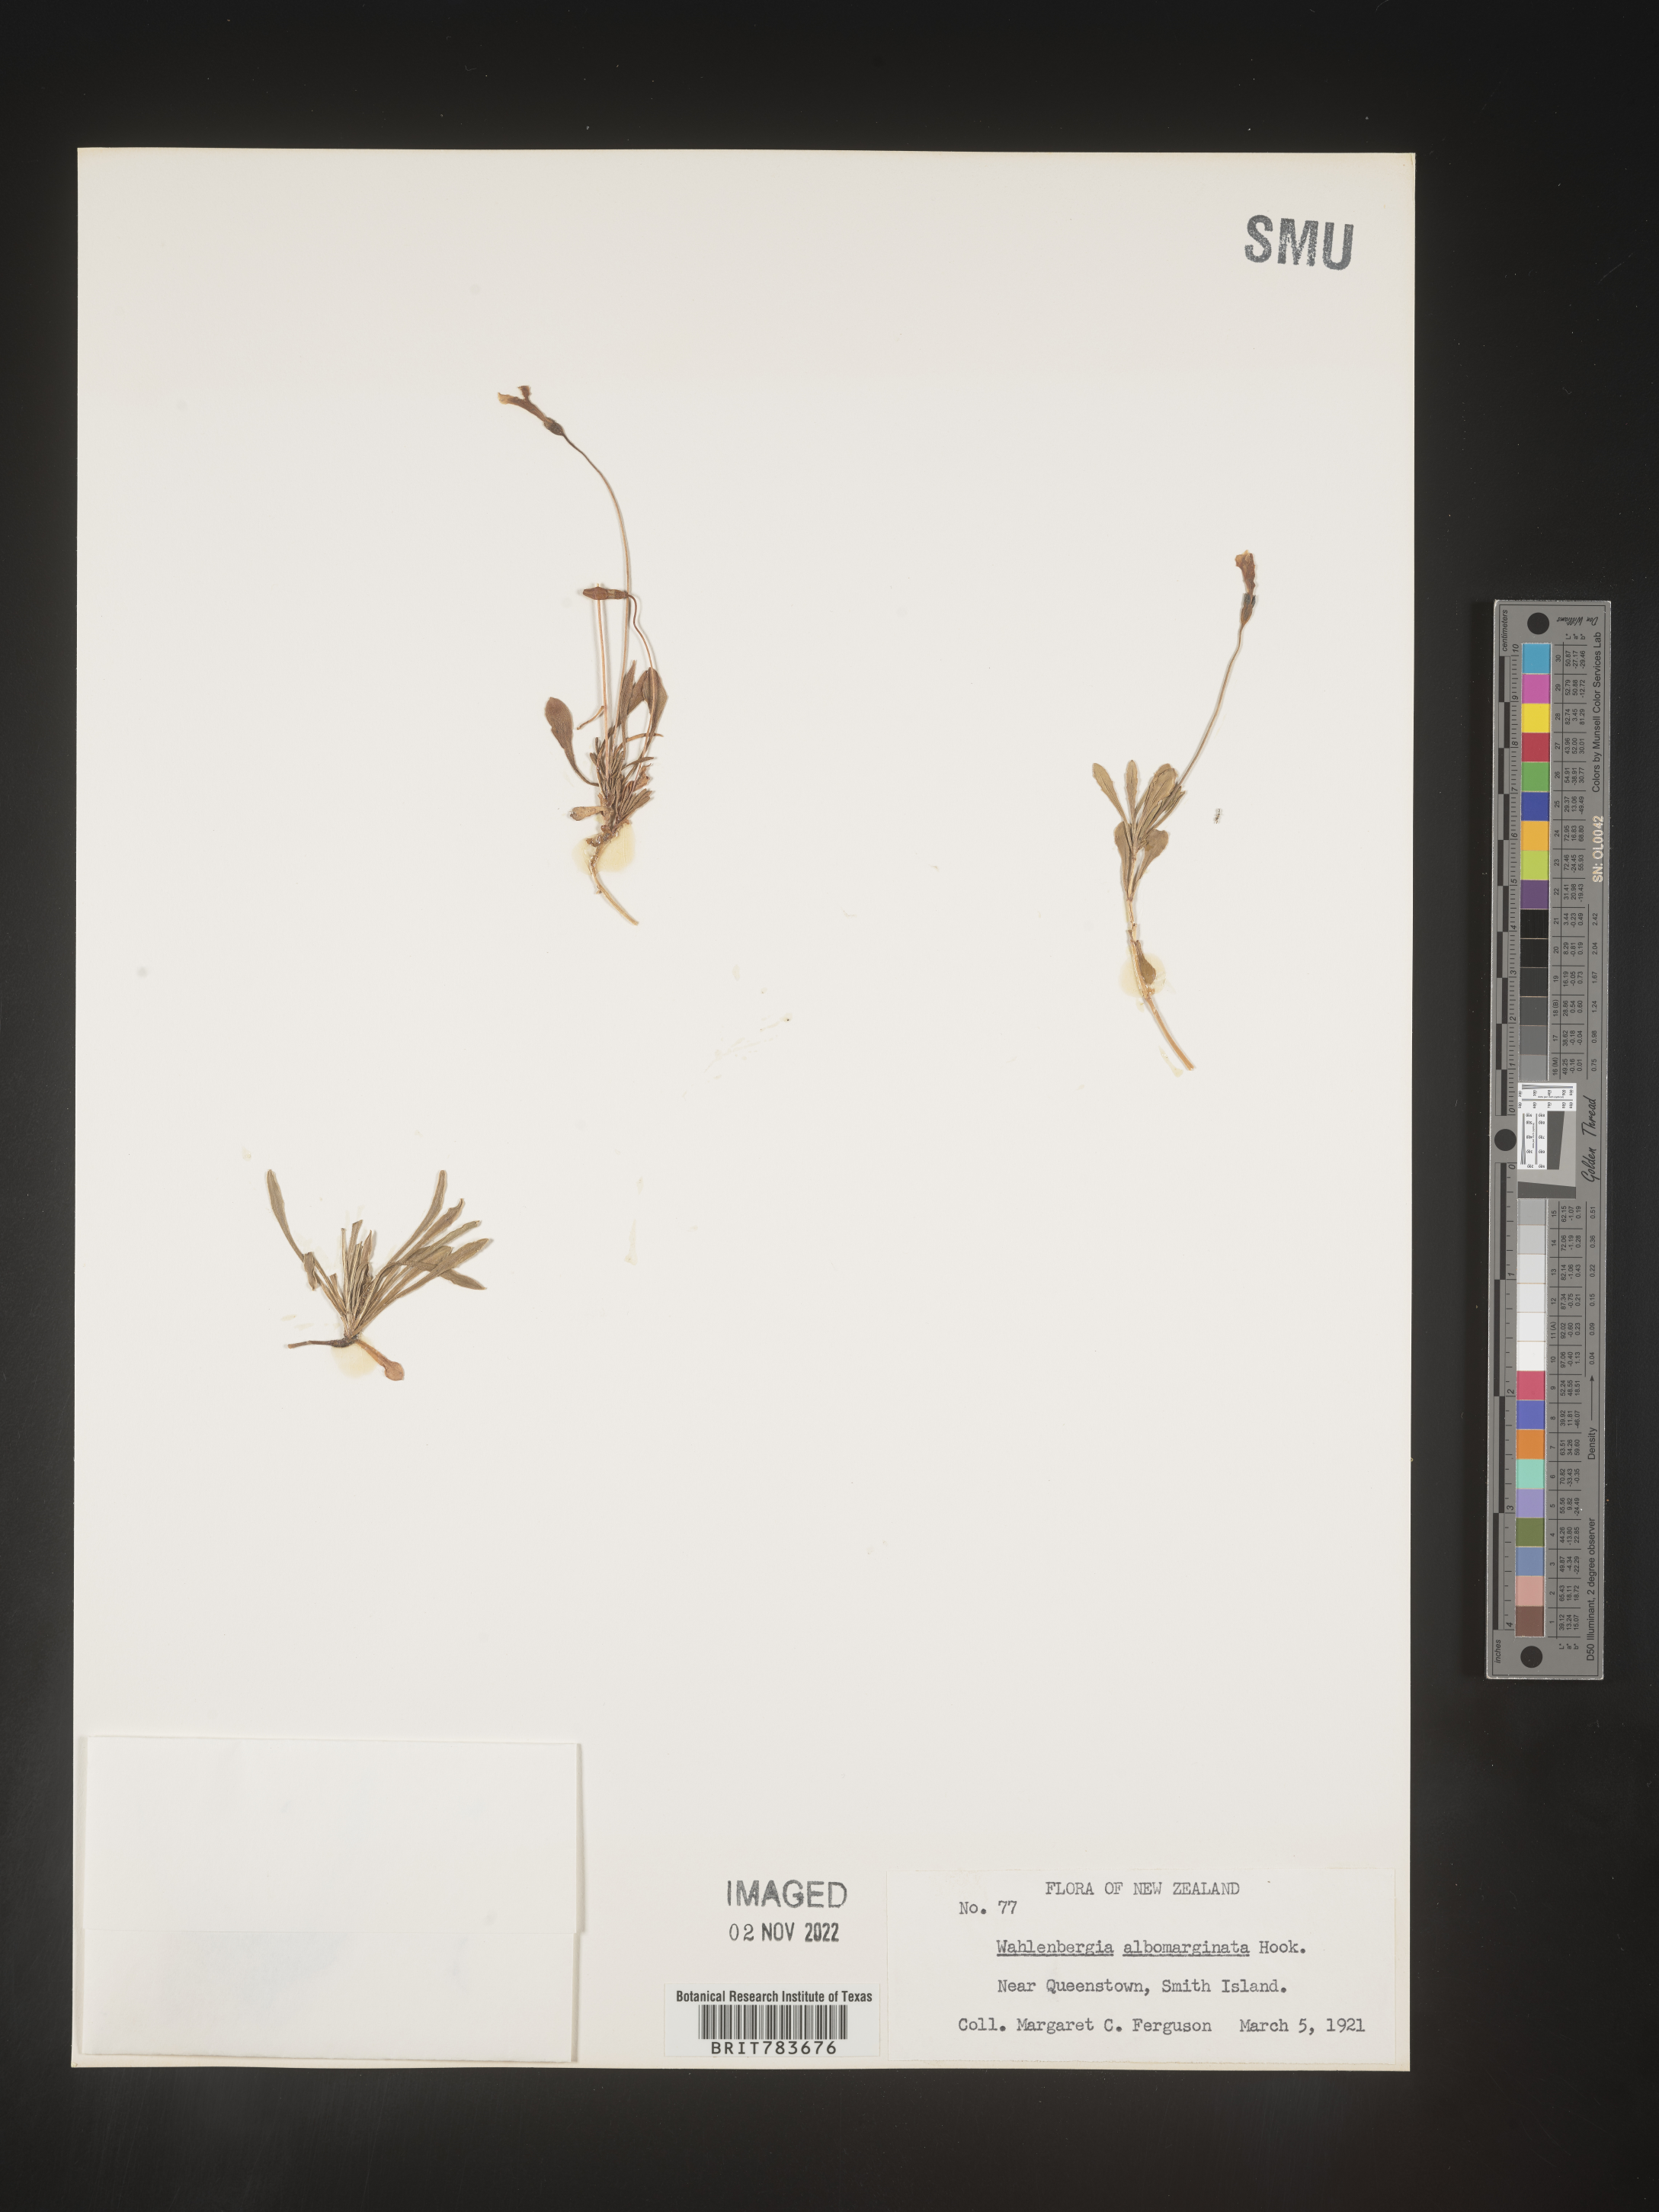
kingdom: Plantae
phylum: Tracheophyta
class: Magnoliopsida
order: Asterales
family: Campanulaceae
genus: Wahlenbergia
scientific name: Wahlenbergia
